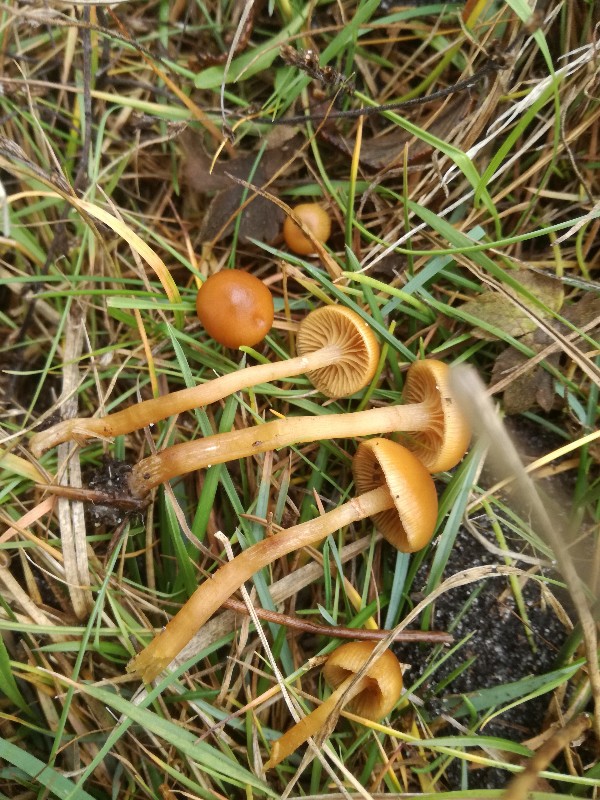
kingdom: Fungi
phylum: Basidiomycota
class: Agaricomycetes
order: Agaricales
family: Hymenogastraceae
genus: Galerina
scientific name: Galerina marginata
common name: randbæltet hjelmhat
